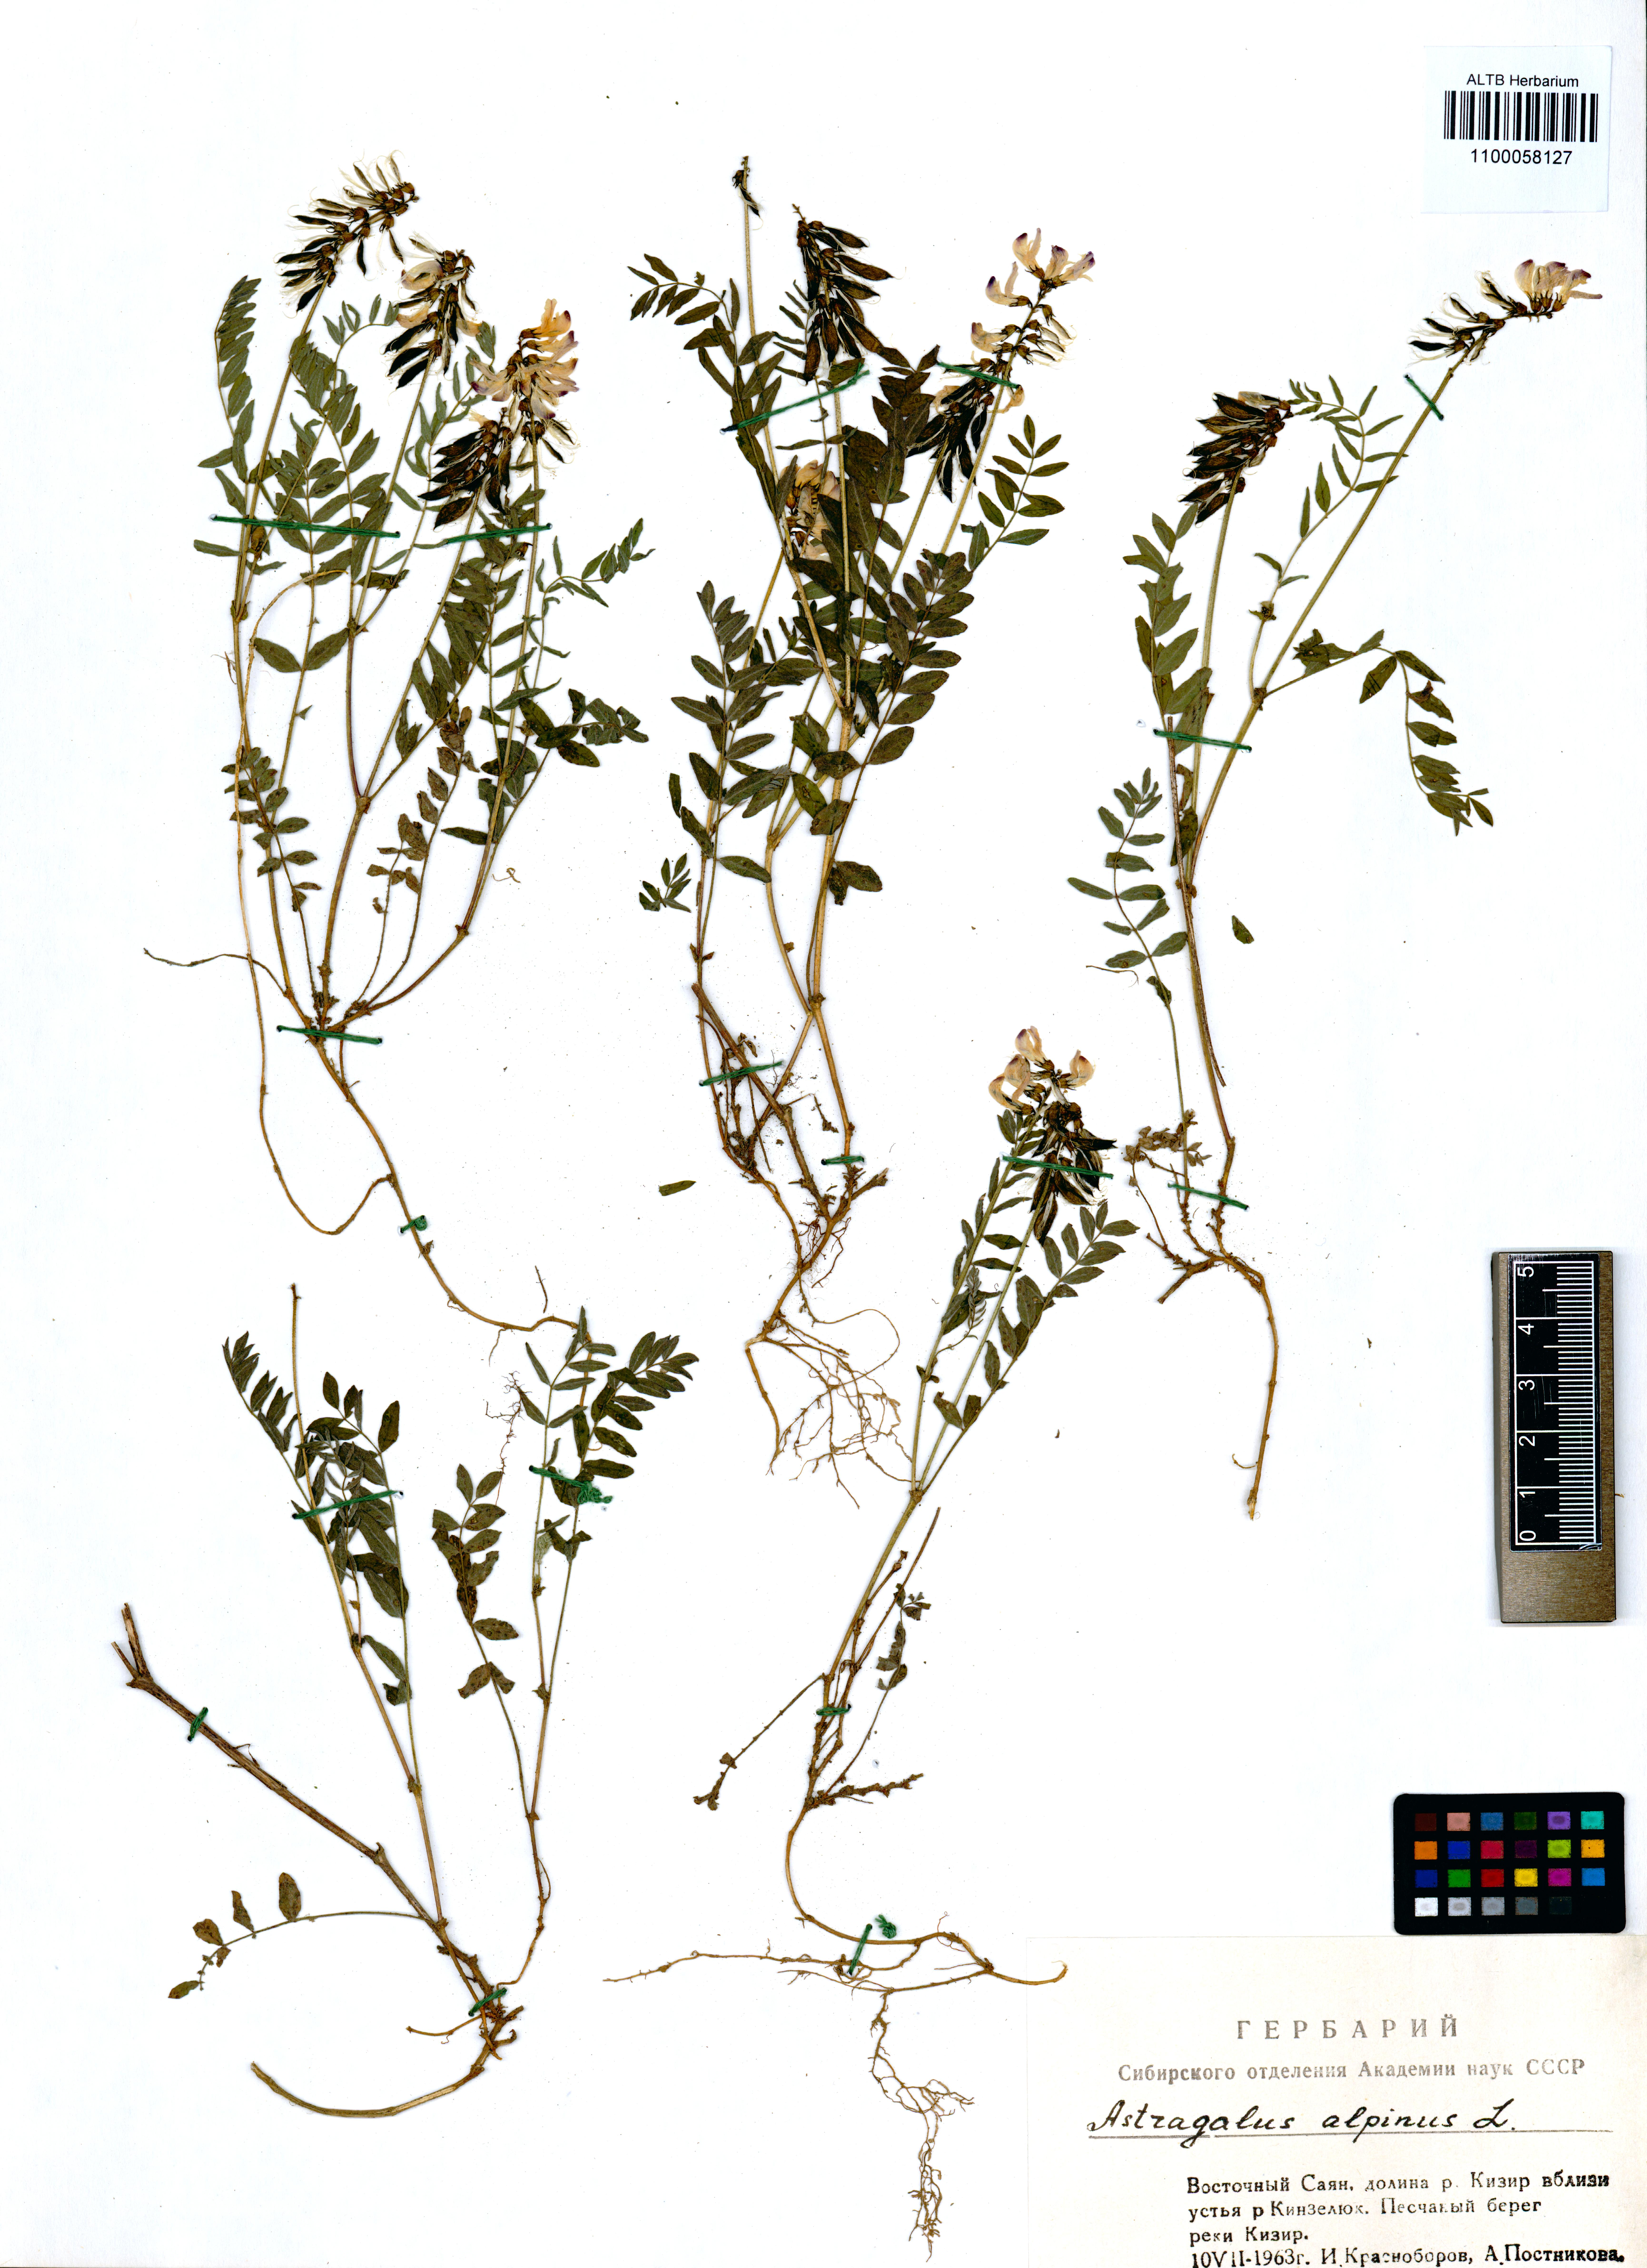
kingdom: Plantae
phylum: Tracheophyta
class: Magnoliopsida
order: Fabales
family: Fabaceae
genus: Astragalus
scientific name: Astragalus alpinus
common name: Alpine milk-vetch
